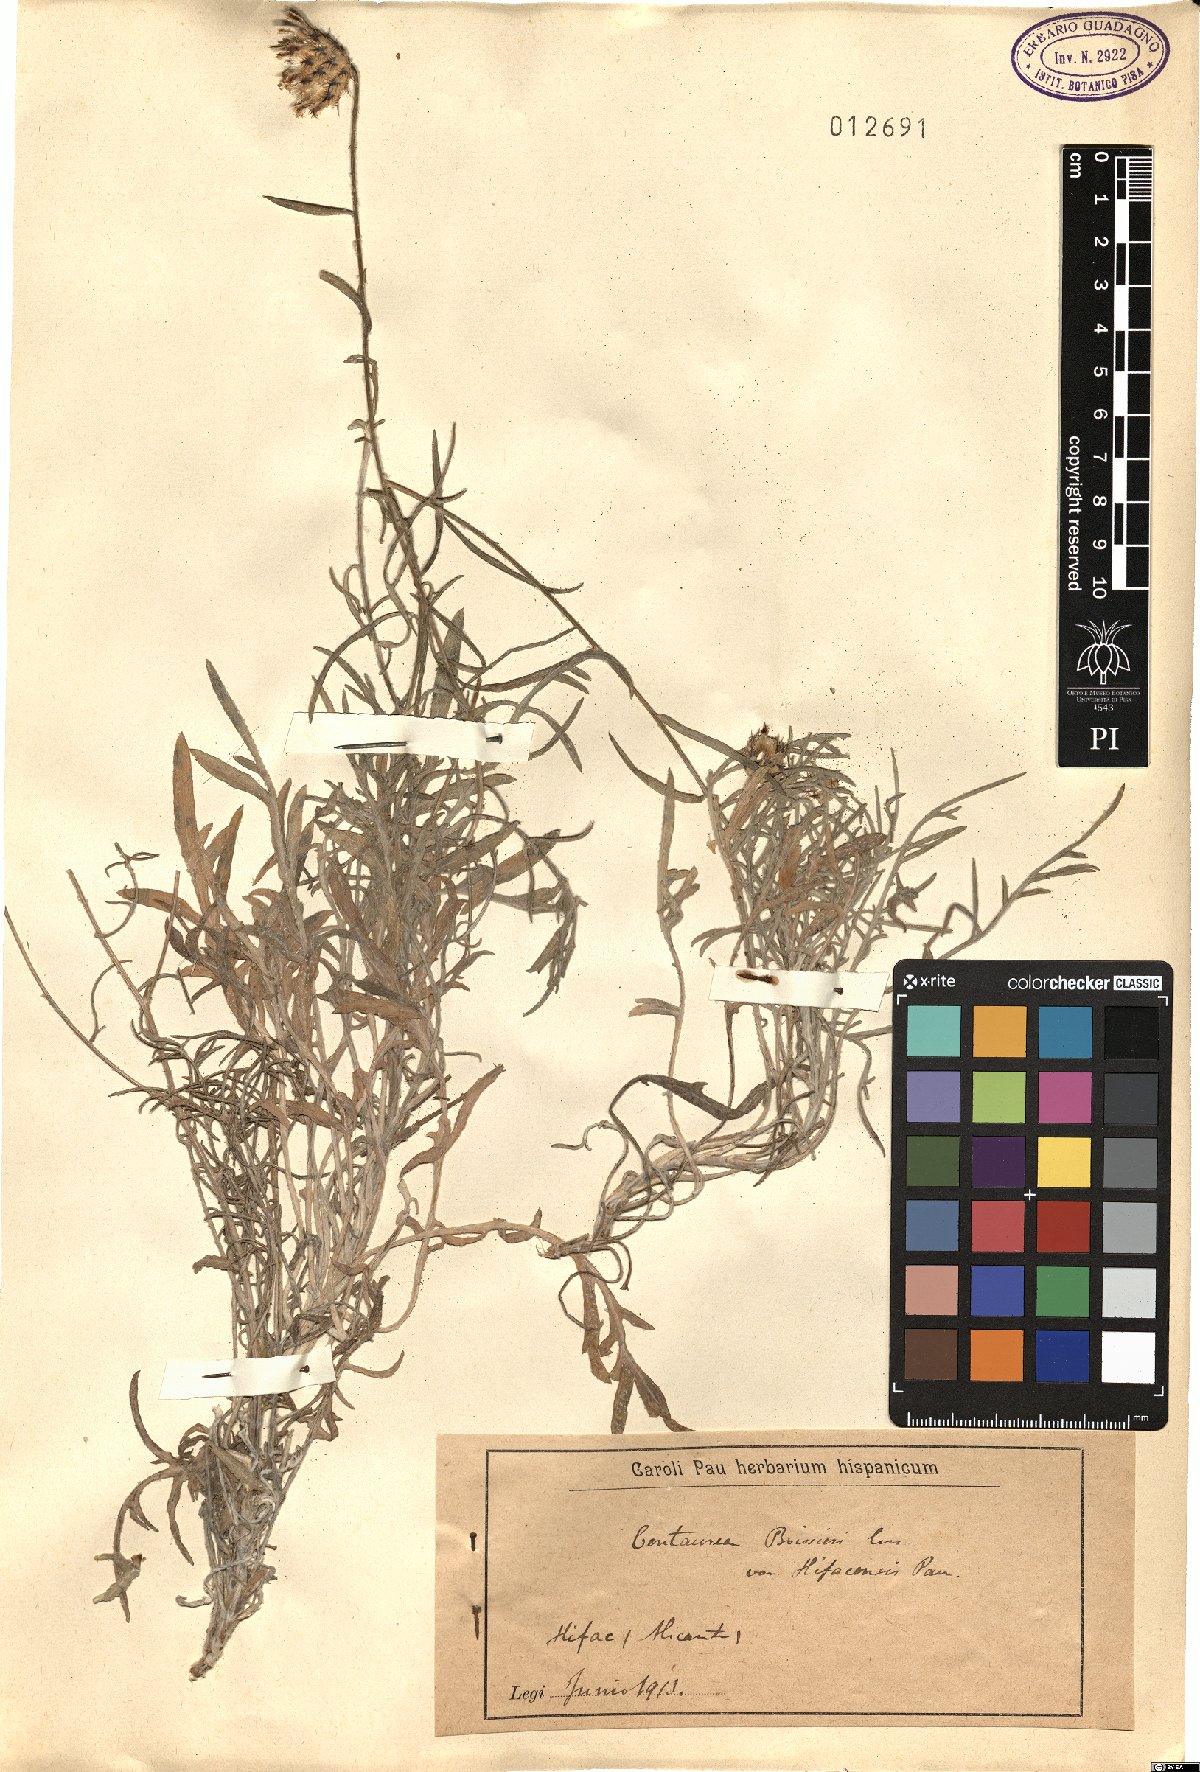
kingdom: Plantae
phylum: Tracheophyta
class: Magnoliopsida
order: Asterales
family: Asteraceae
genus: Centaurea
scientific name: Centaurea boissieri
